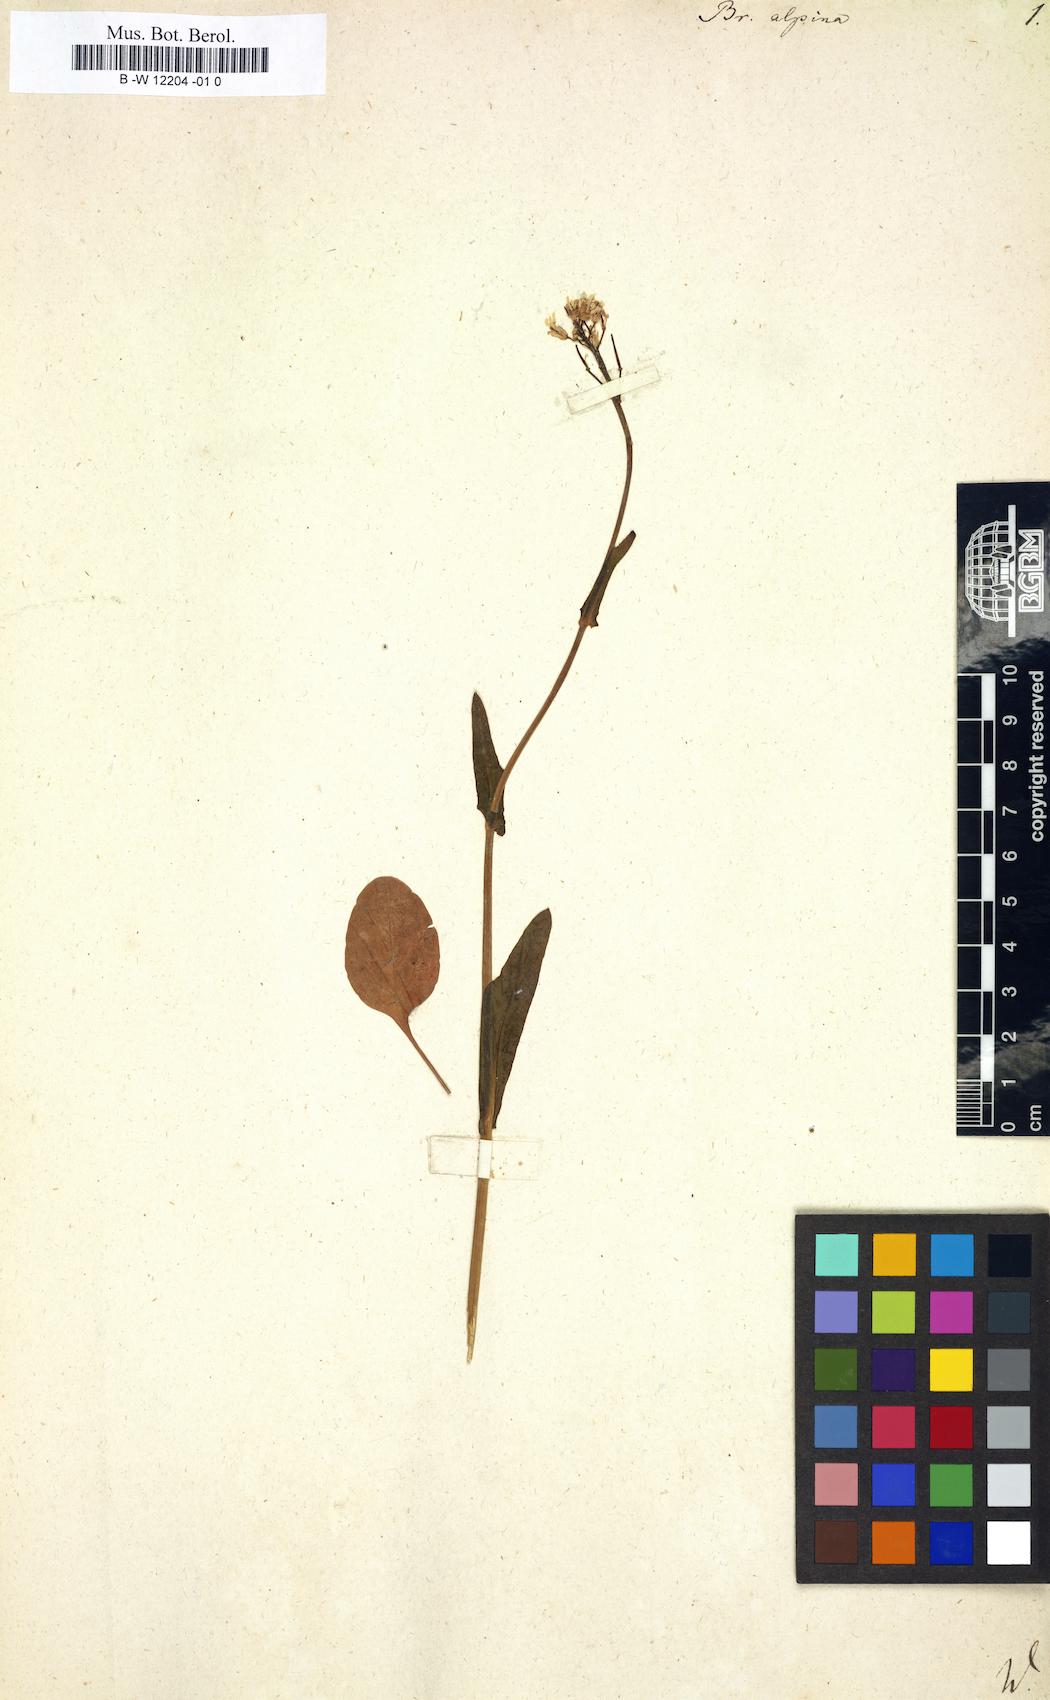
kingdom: Plantae
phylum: Tracheophyta
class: Magnoliopsida
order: Brassicales
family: Brassicaceae
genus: Fourraea
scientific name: Fourraea alpina
